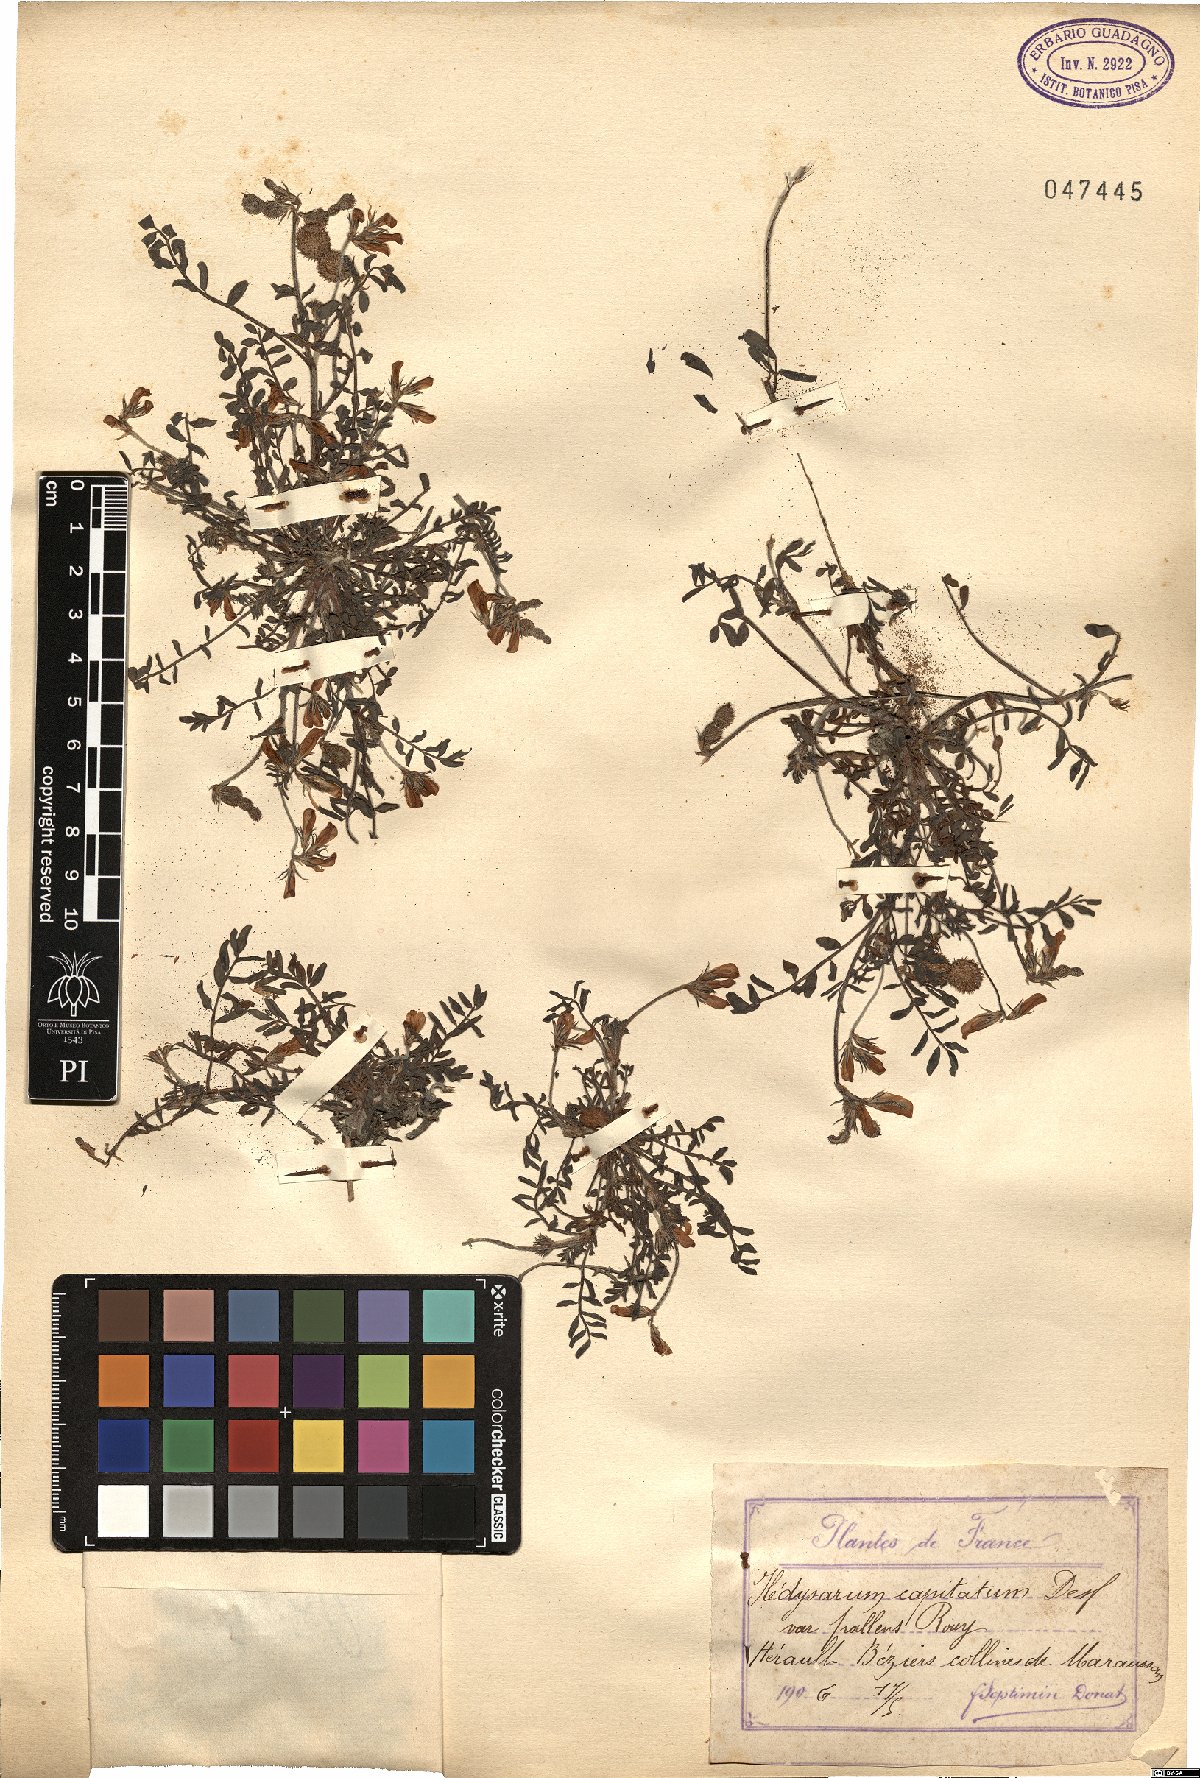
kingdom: Plantae
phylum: Tracheophyta
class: Magnoliopsida
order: Fabales
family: Fabaceae
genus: Sulla
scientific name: Sulla spinosissima
